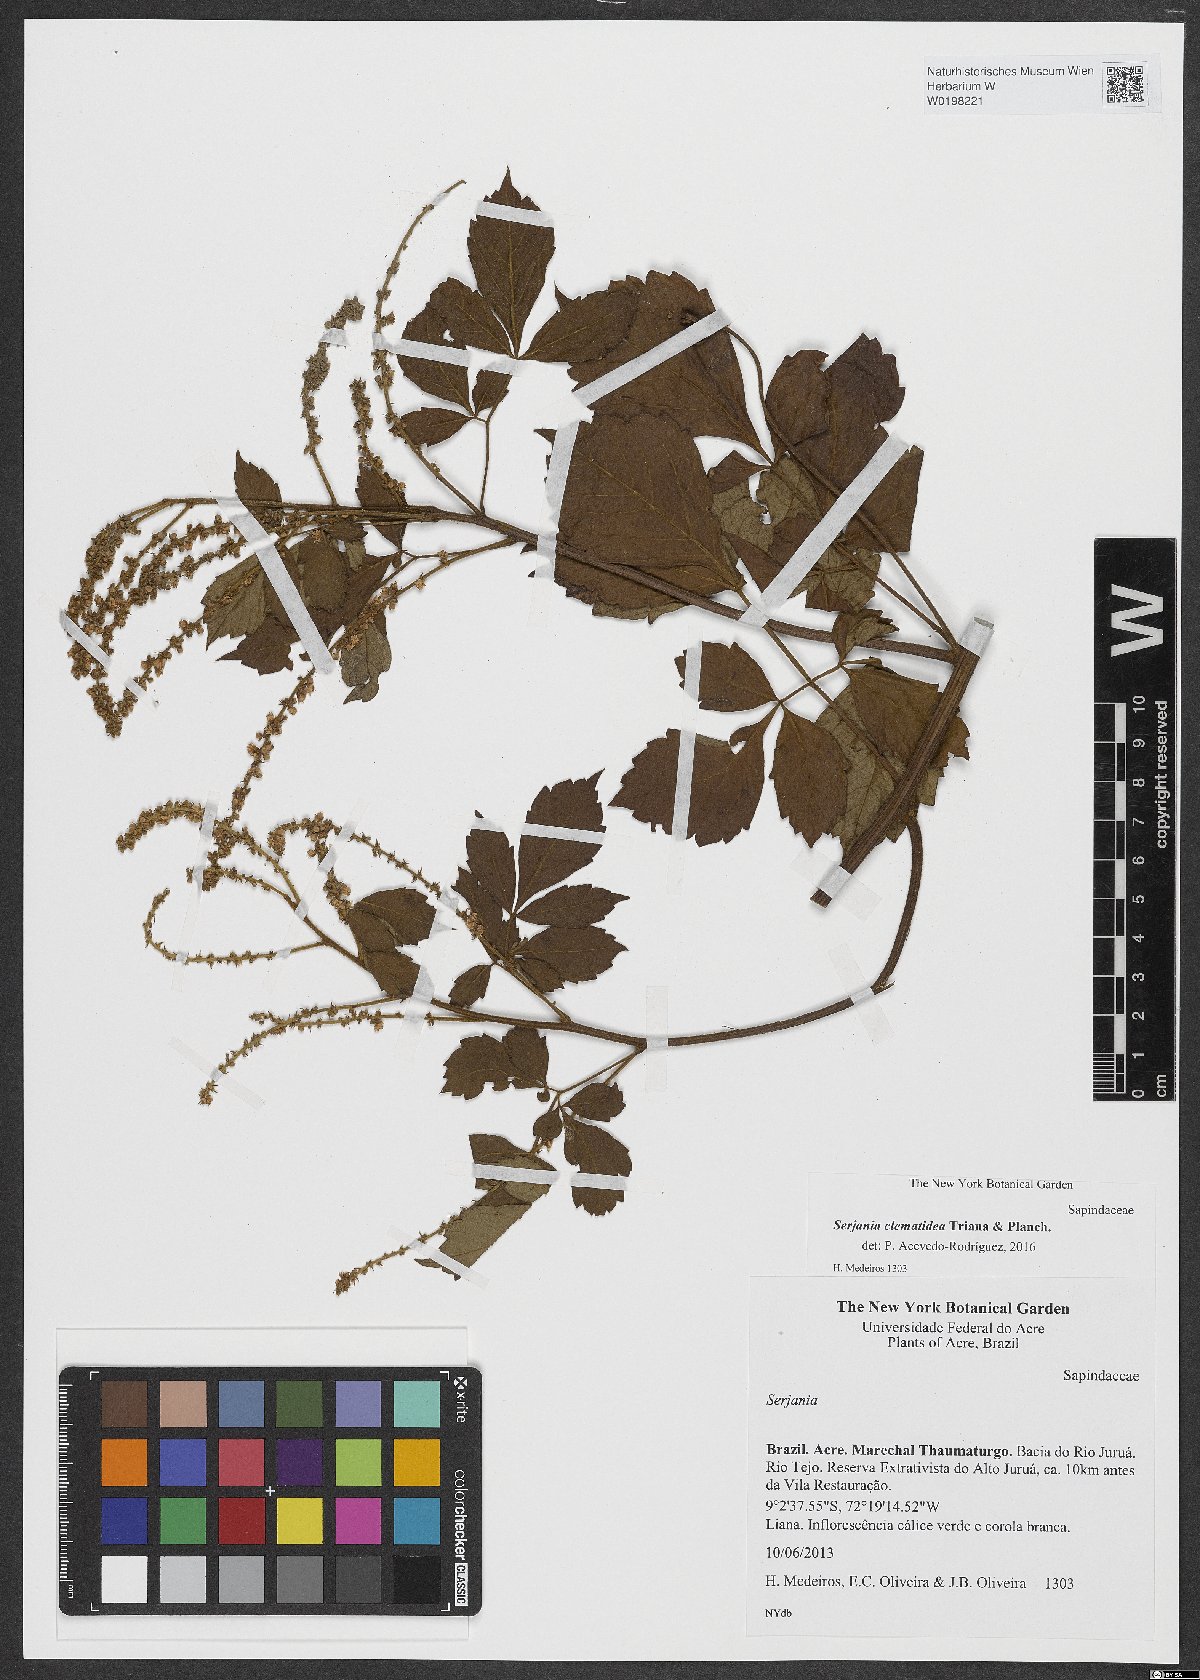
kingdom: Plantae
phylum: Tracheophyta
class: Magnoliopsida
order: Sapindales
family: Sapindaceae
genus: Serjania
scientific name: Serjania clematidea
